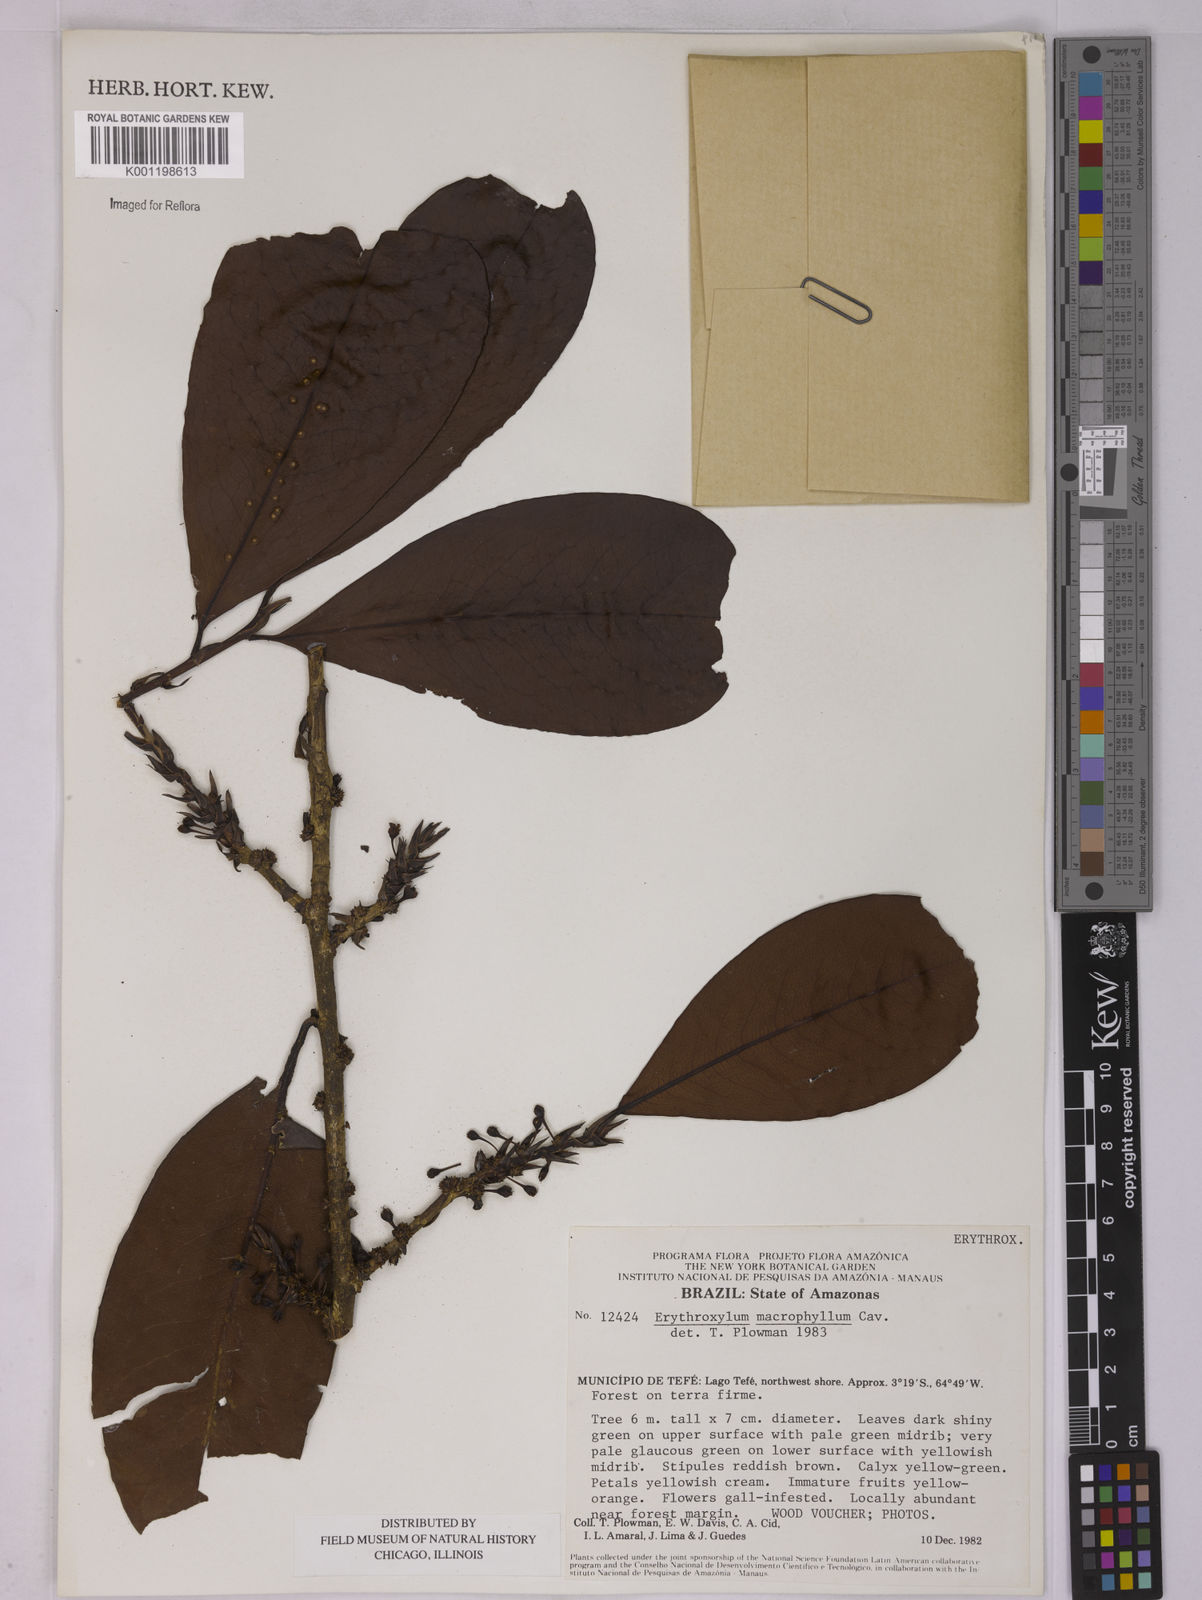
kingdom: Plantae
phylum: Tracheophyta
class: Magnoliopsida
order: Malpighiales
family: Erythroxylaceae
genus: Erythroxylum
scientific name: Erythroxylum macrophyllum
